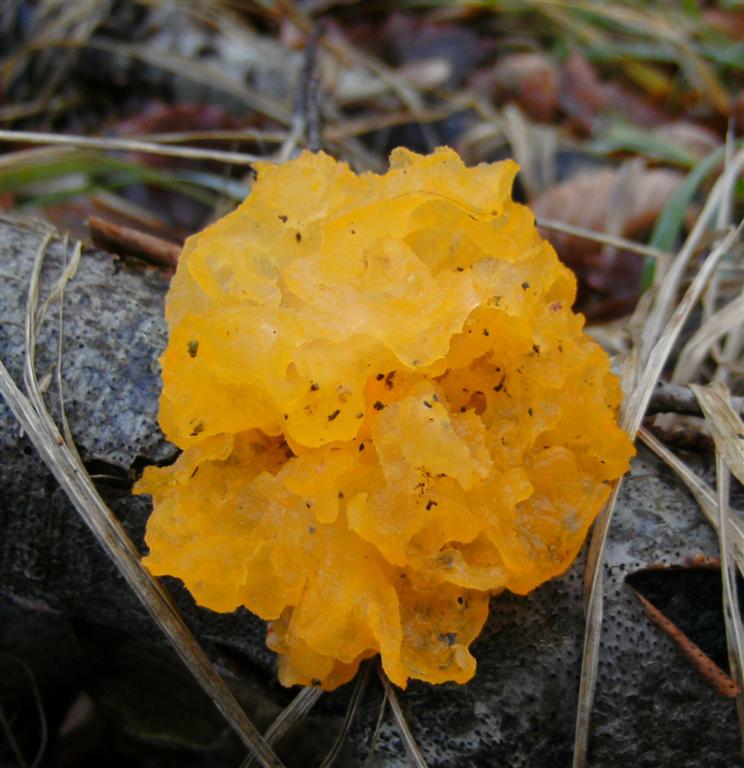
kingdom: Fungi
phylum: Basidiomycota
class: Tremellomycetes
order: Tremellales
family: Tremellaceae
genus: Tremella
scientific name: Tremella mesenterica
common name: gul bævresvamp
